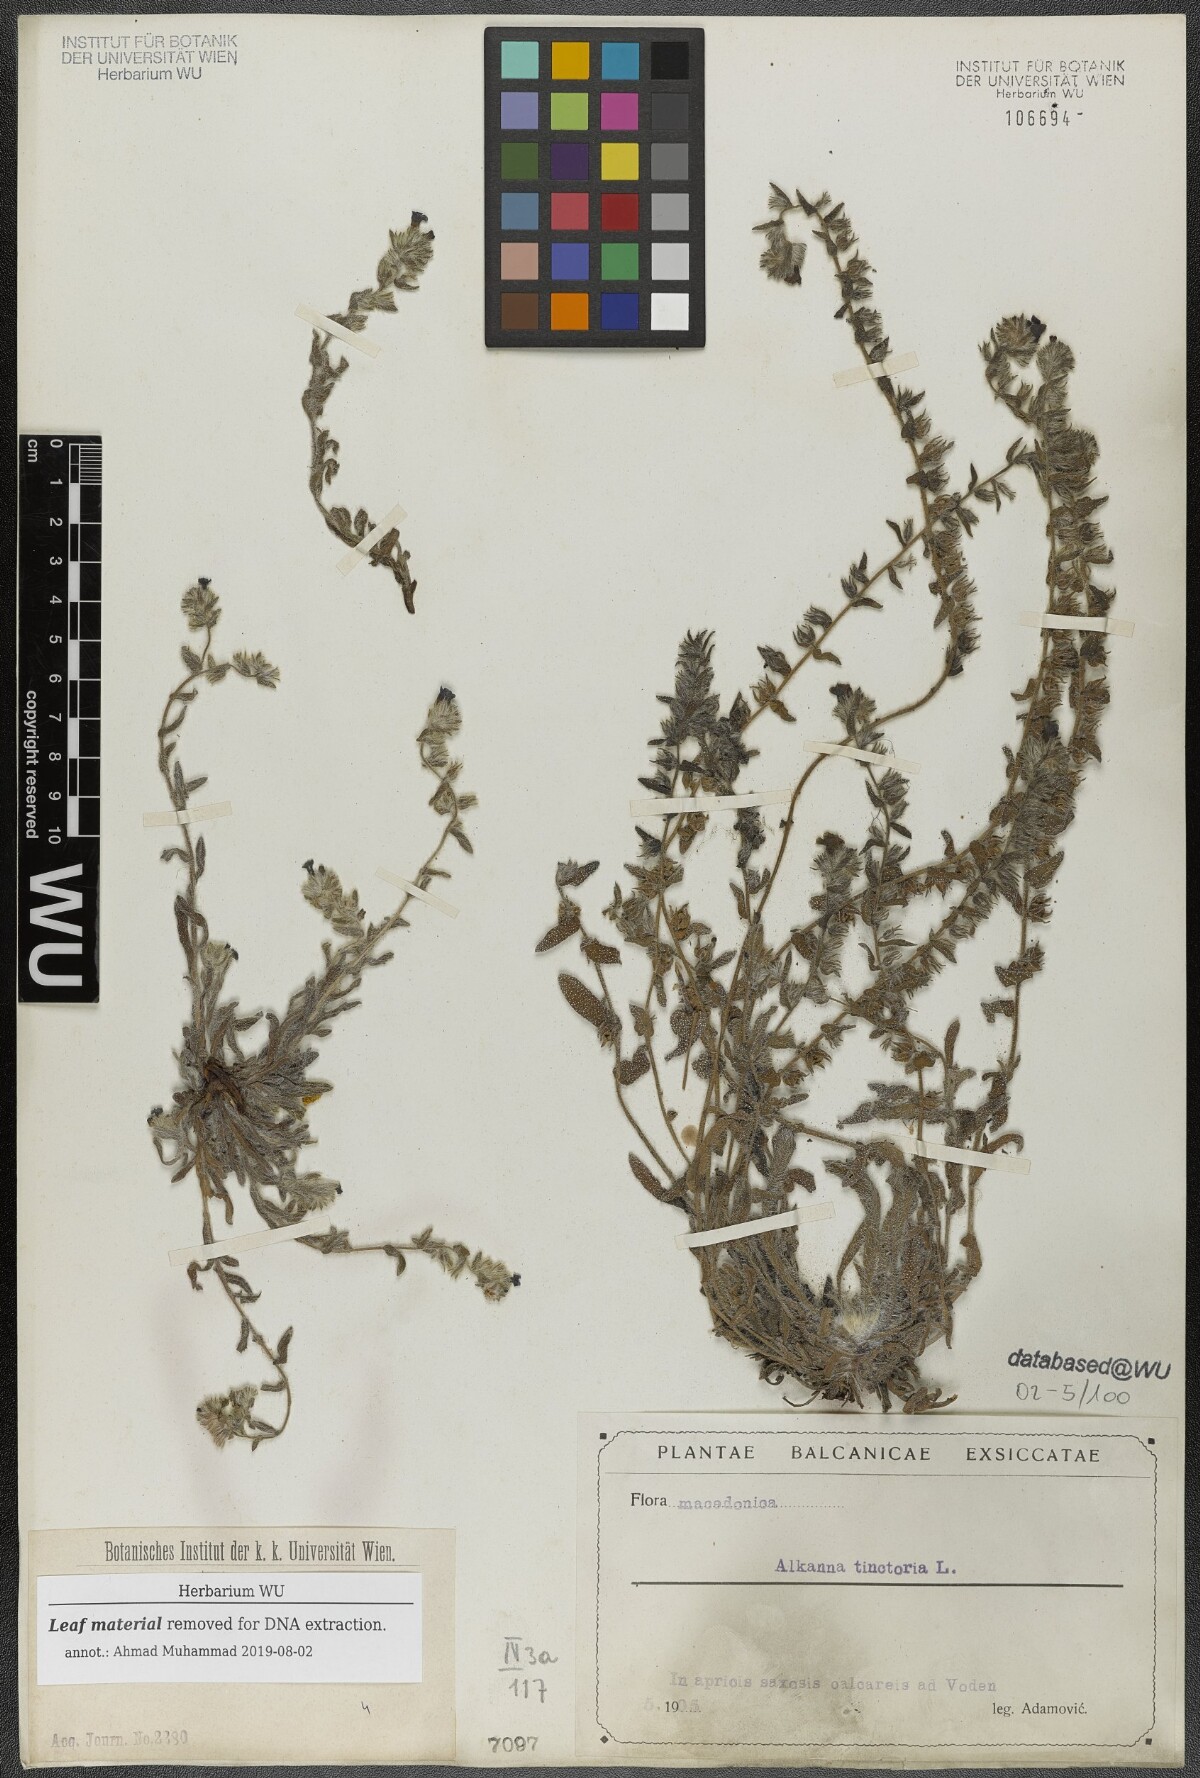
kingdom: Plantae
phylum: Tracheophyta
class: Magnoliopsida
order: Boraginales
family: Boraginaceae
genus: Alkanna
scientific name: Alkanna tinctoria
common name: Dyer's-alkanet
